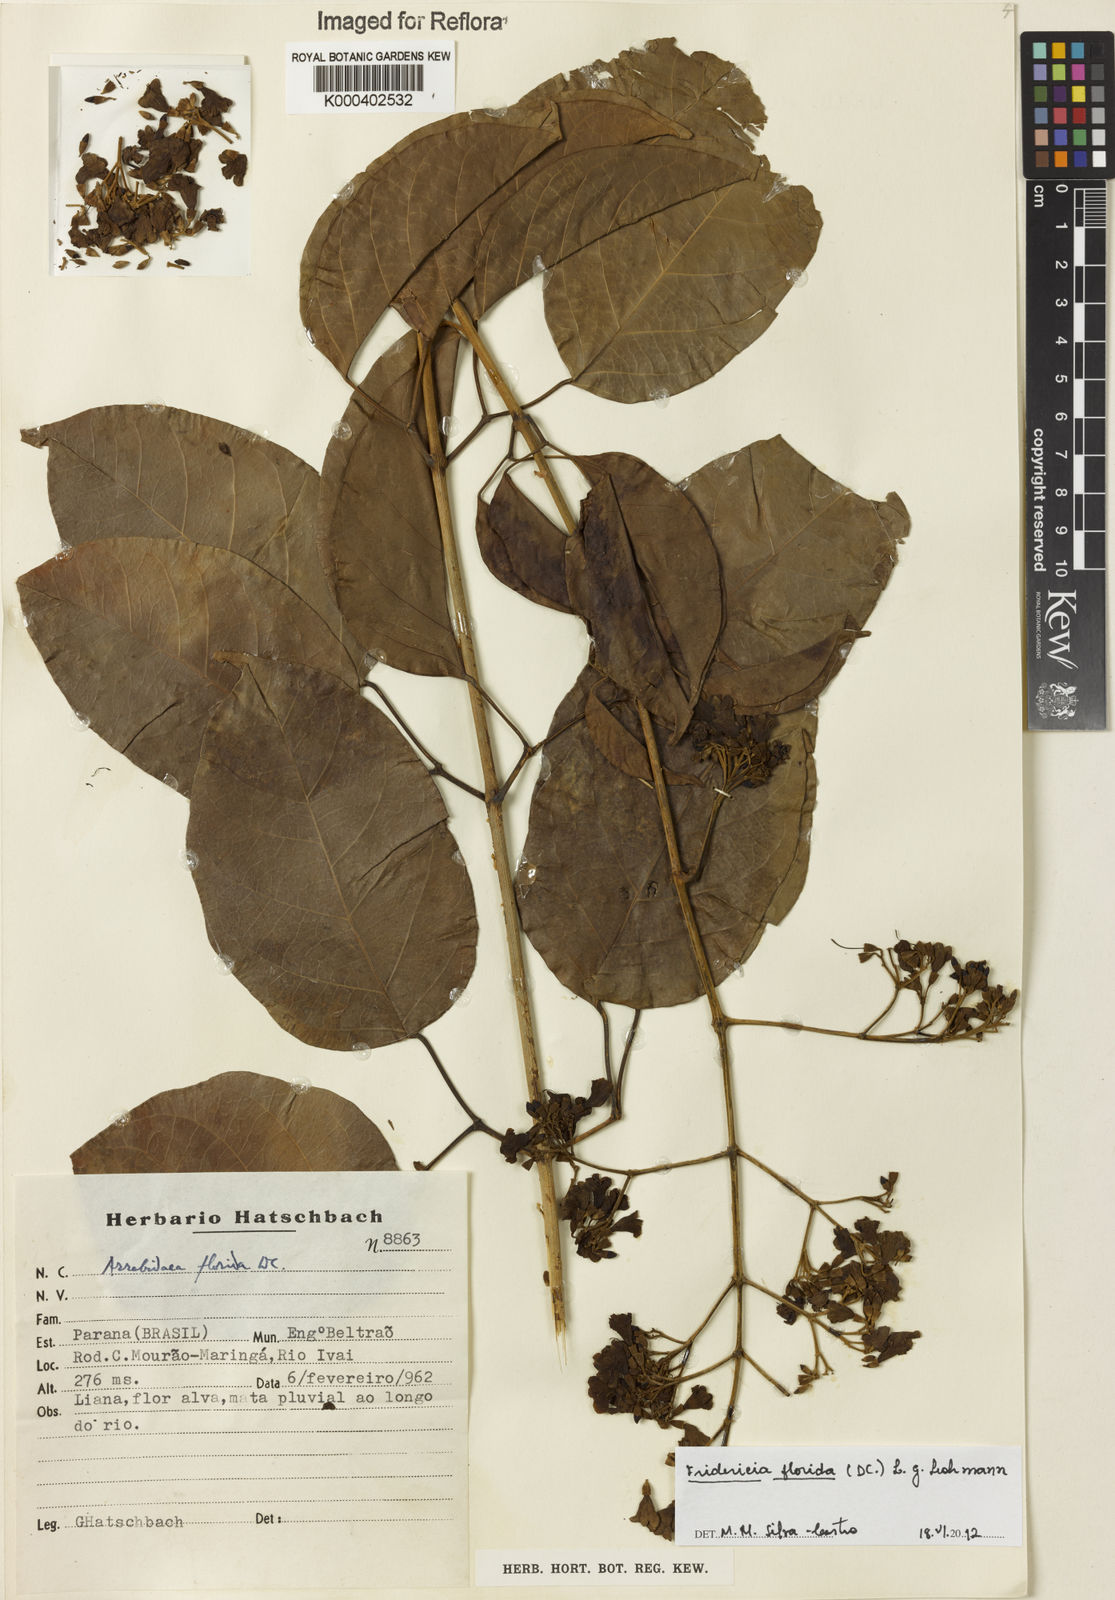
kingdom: Plantae
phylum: Tracheophyta
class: Magnoliopsida
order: Lamiales
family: Bignoniaceae
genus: Fridericia
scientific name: Fridericia florida
